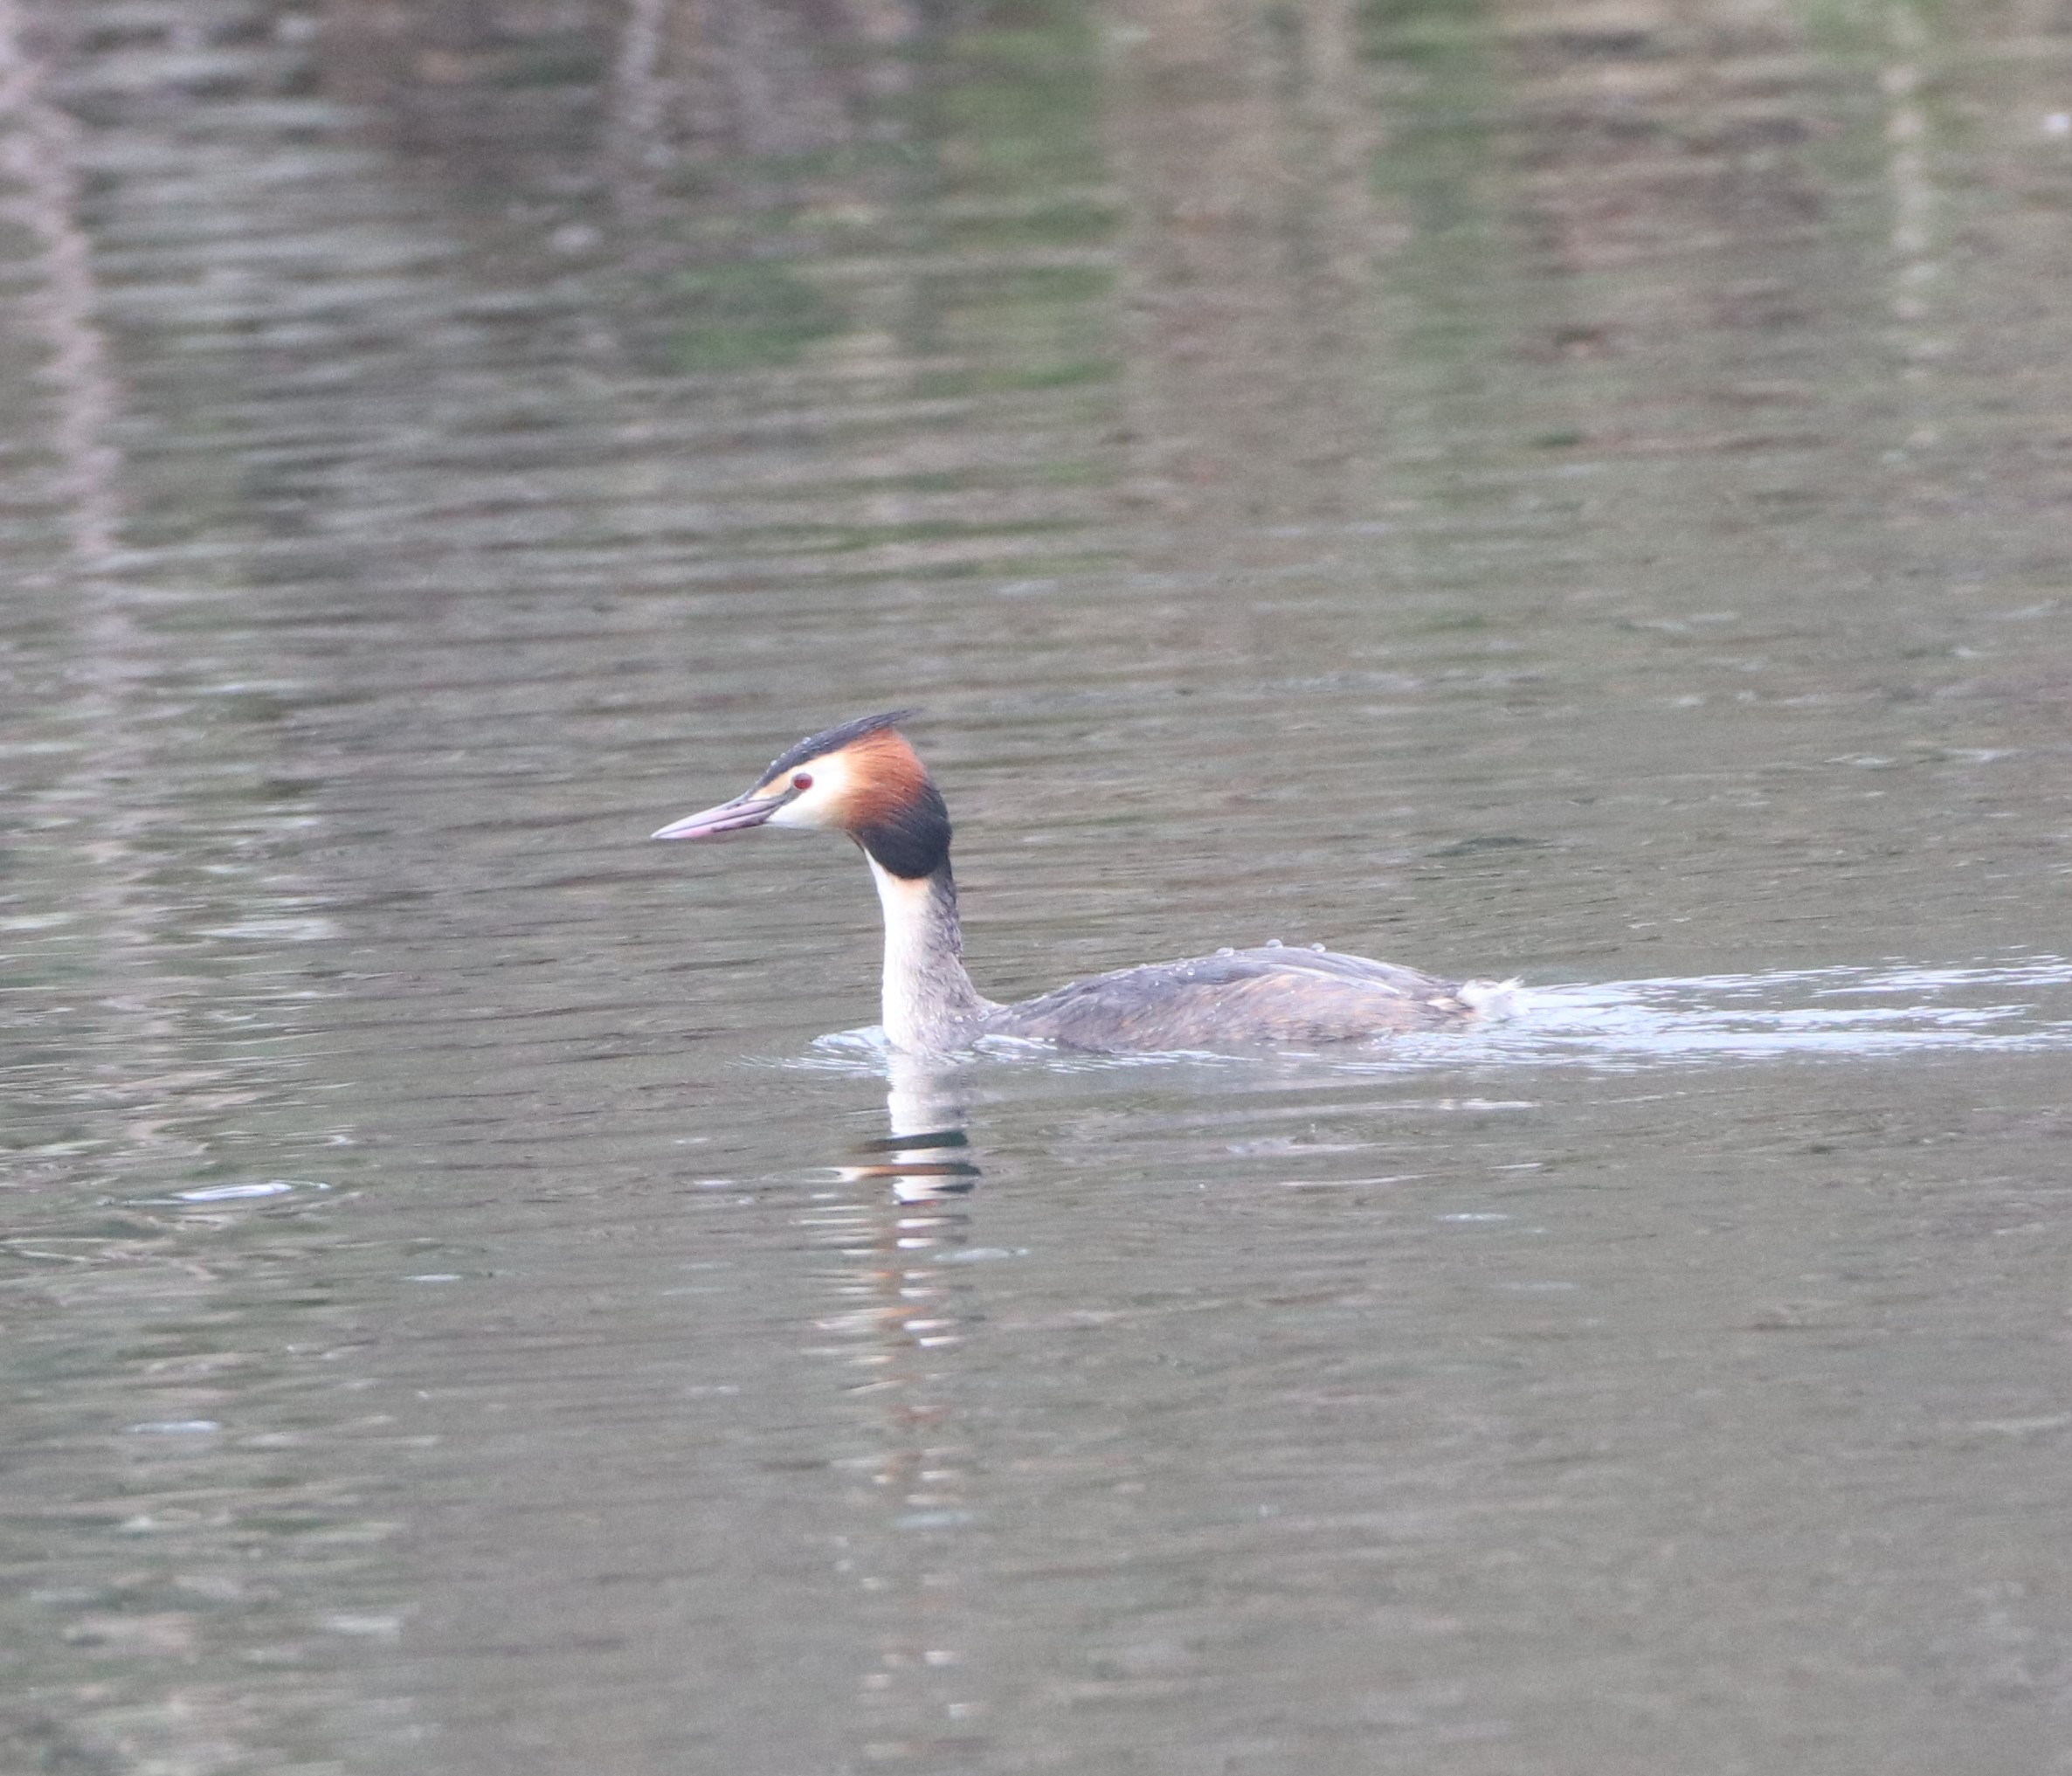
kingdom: Animalia
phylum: Chordata
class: Aves
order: Podicipediformes
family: Podicipedidae
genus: Podiceps
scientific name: Podiceps cristatus
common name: Toppet lappedykker
